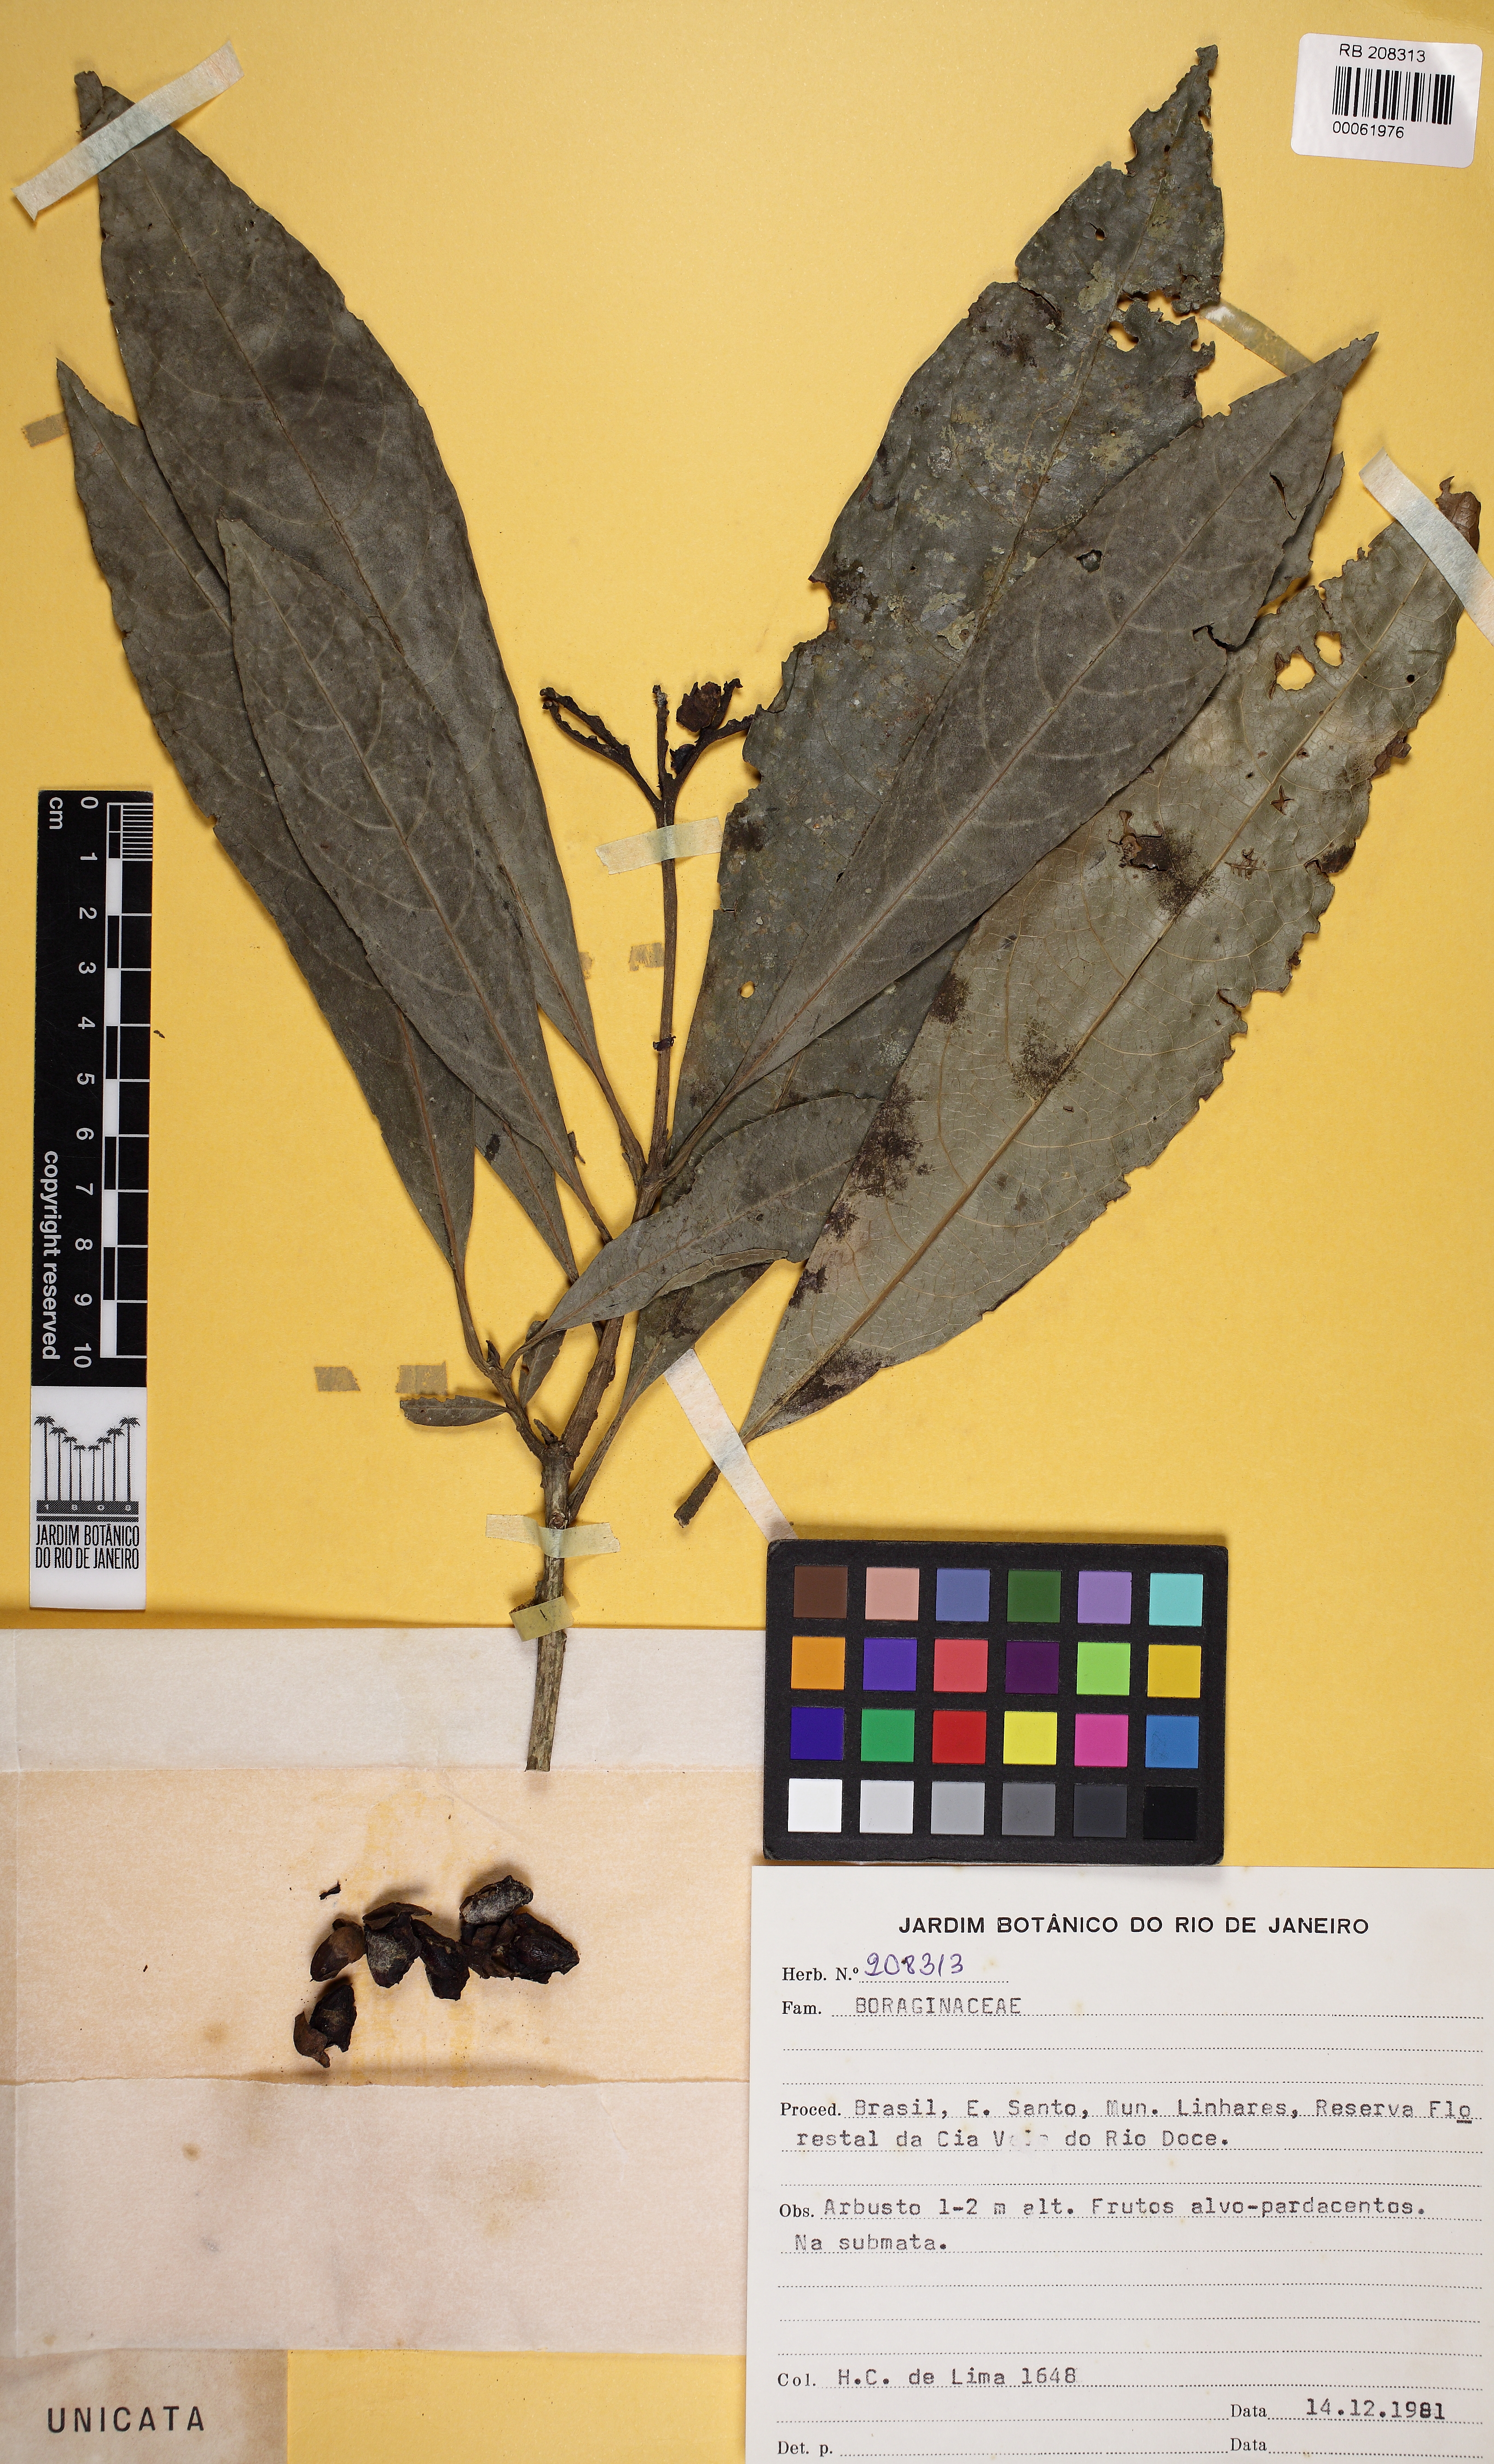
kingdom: Plantae
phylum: Tracheophyta
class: Magnoliopsida
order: Boraginales
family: Cordiaceae
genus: Cordia
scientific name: Cordia
